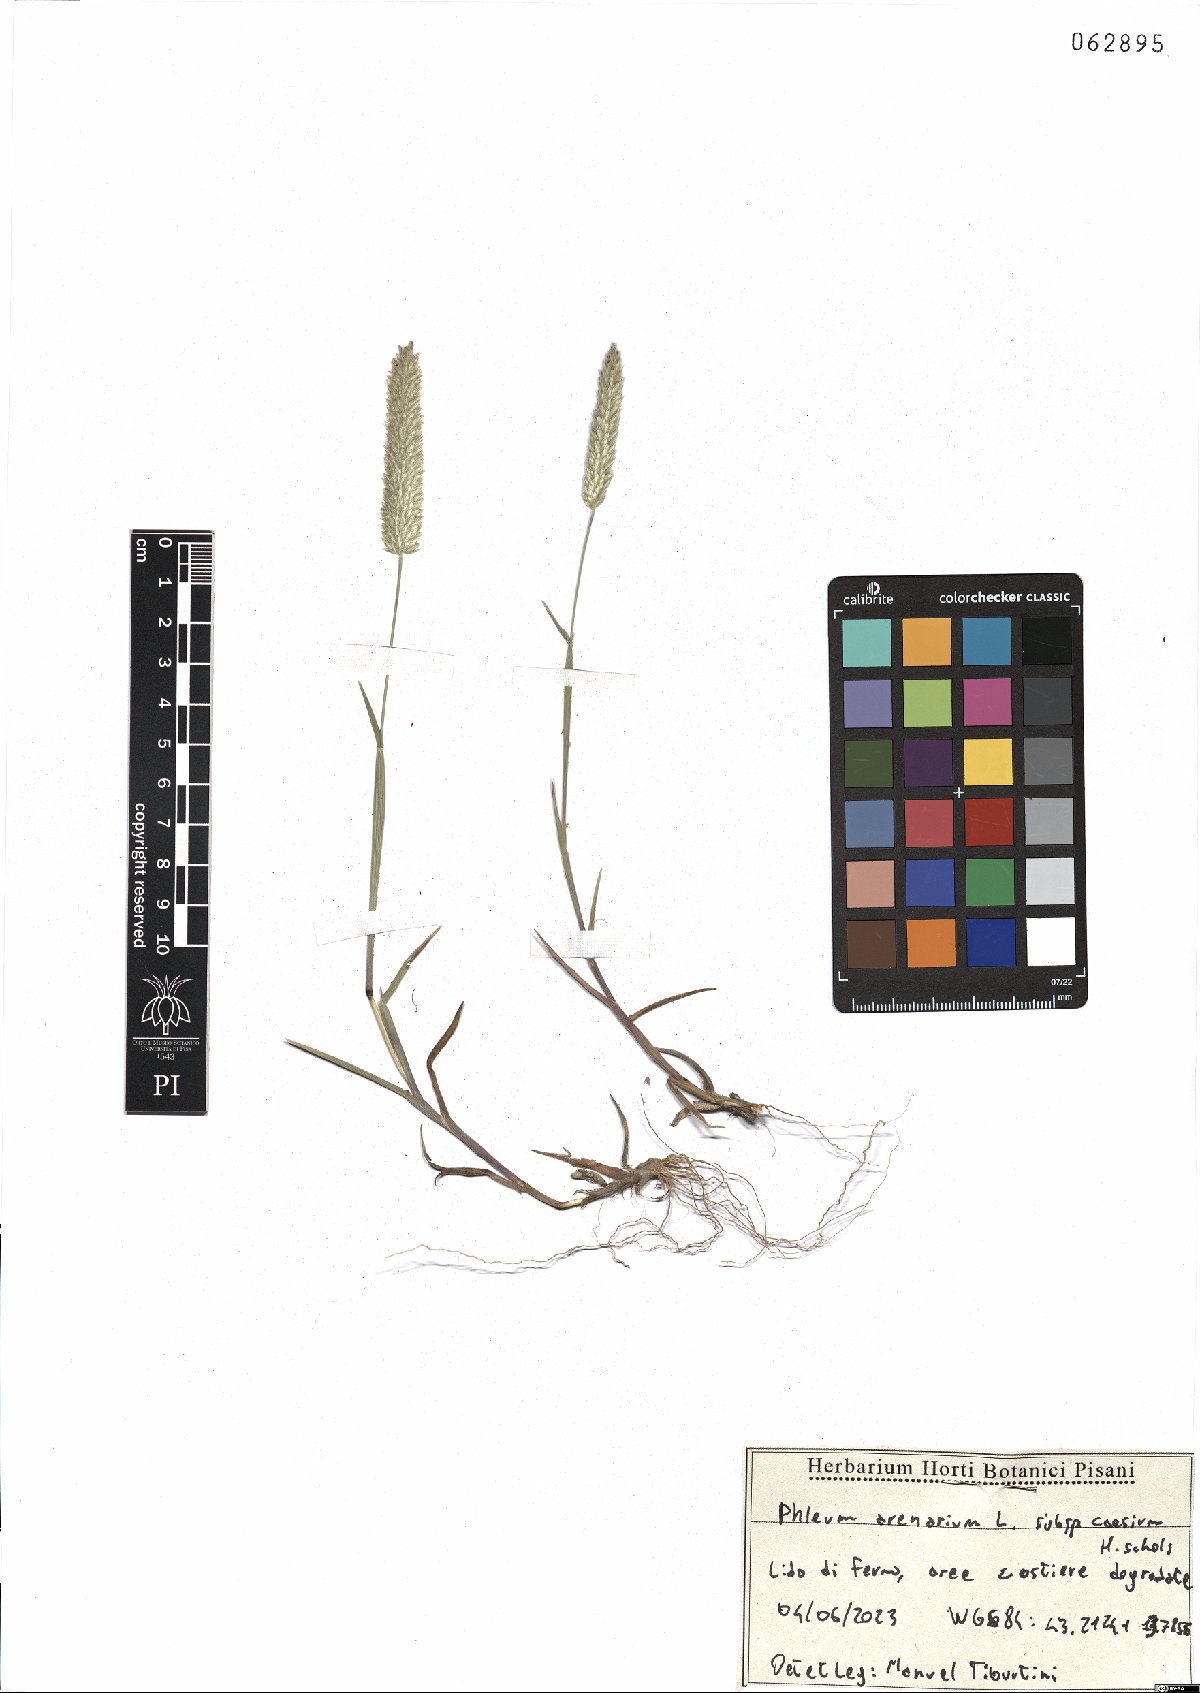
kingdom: Plantae
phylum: Tracheophyta
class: Liliopsida
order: Poales
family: Poaceae
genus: Phleum
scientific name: Phleum arenarium
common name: Sand cat's-tail
